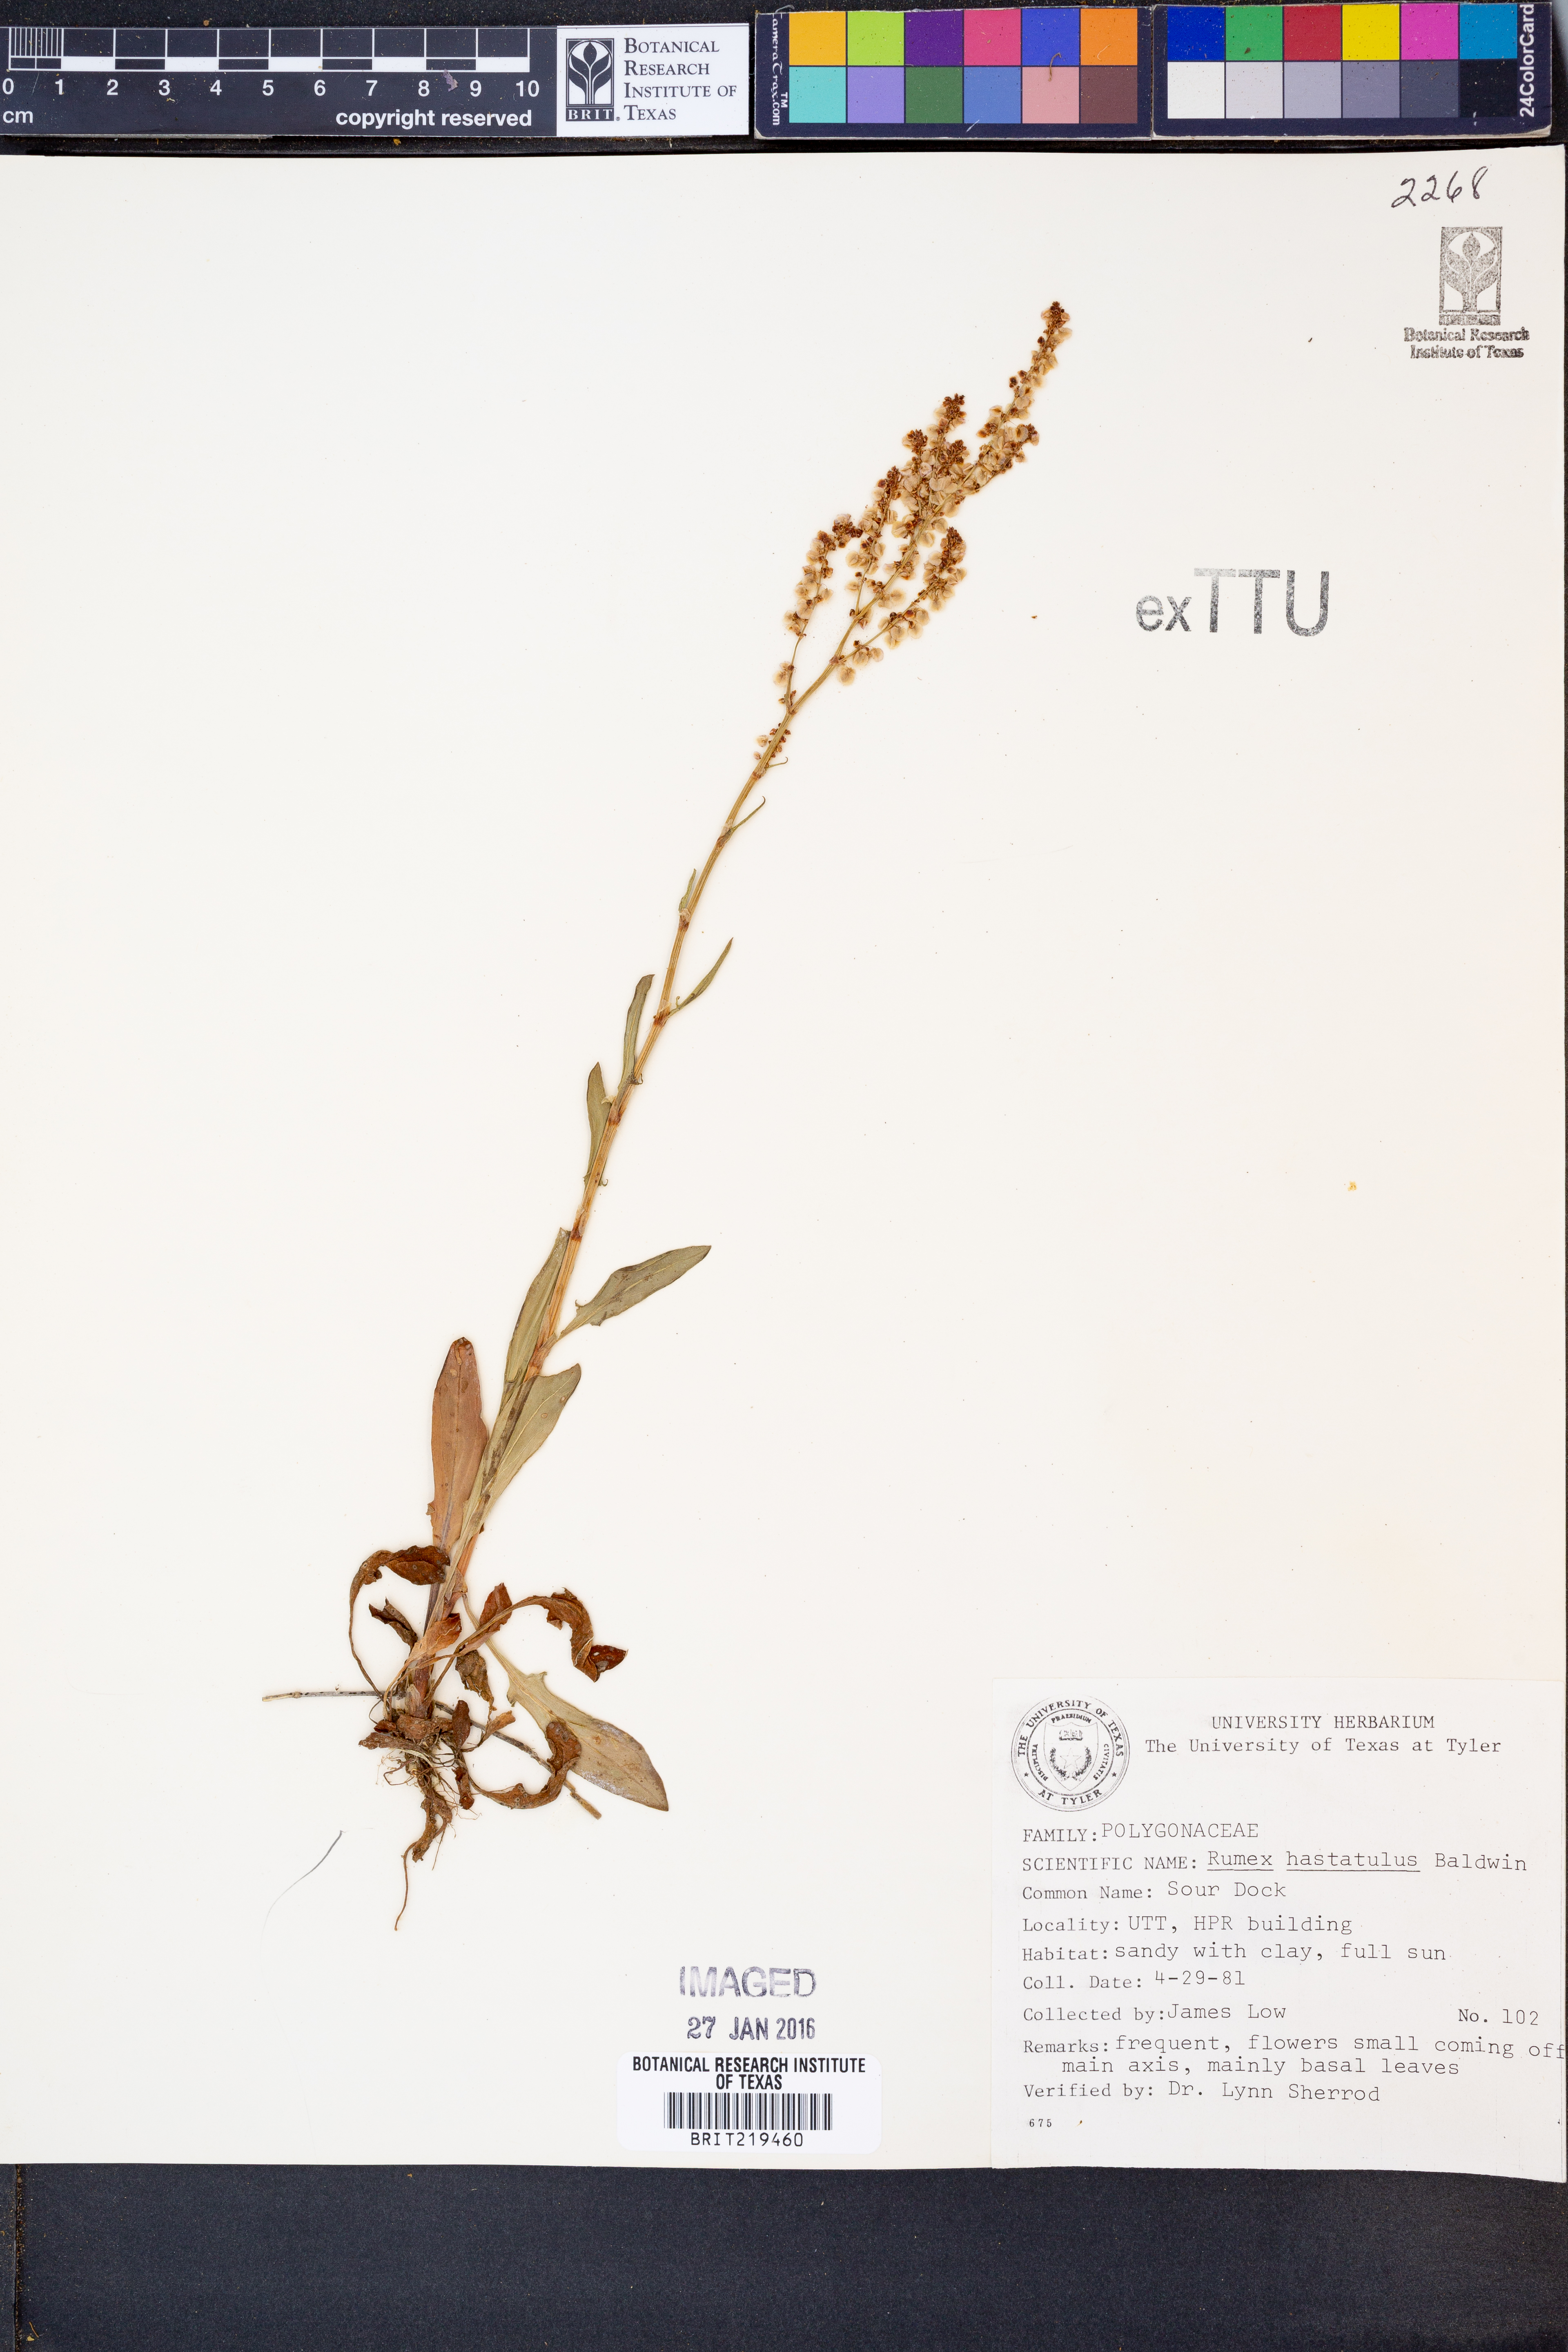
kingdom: Plantae
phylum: Tracheophyta
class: Magnoliopsida
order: Caryophyllales
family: Polygonaceae
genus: Rumex
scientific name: Rumex hastatulus
